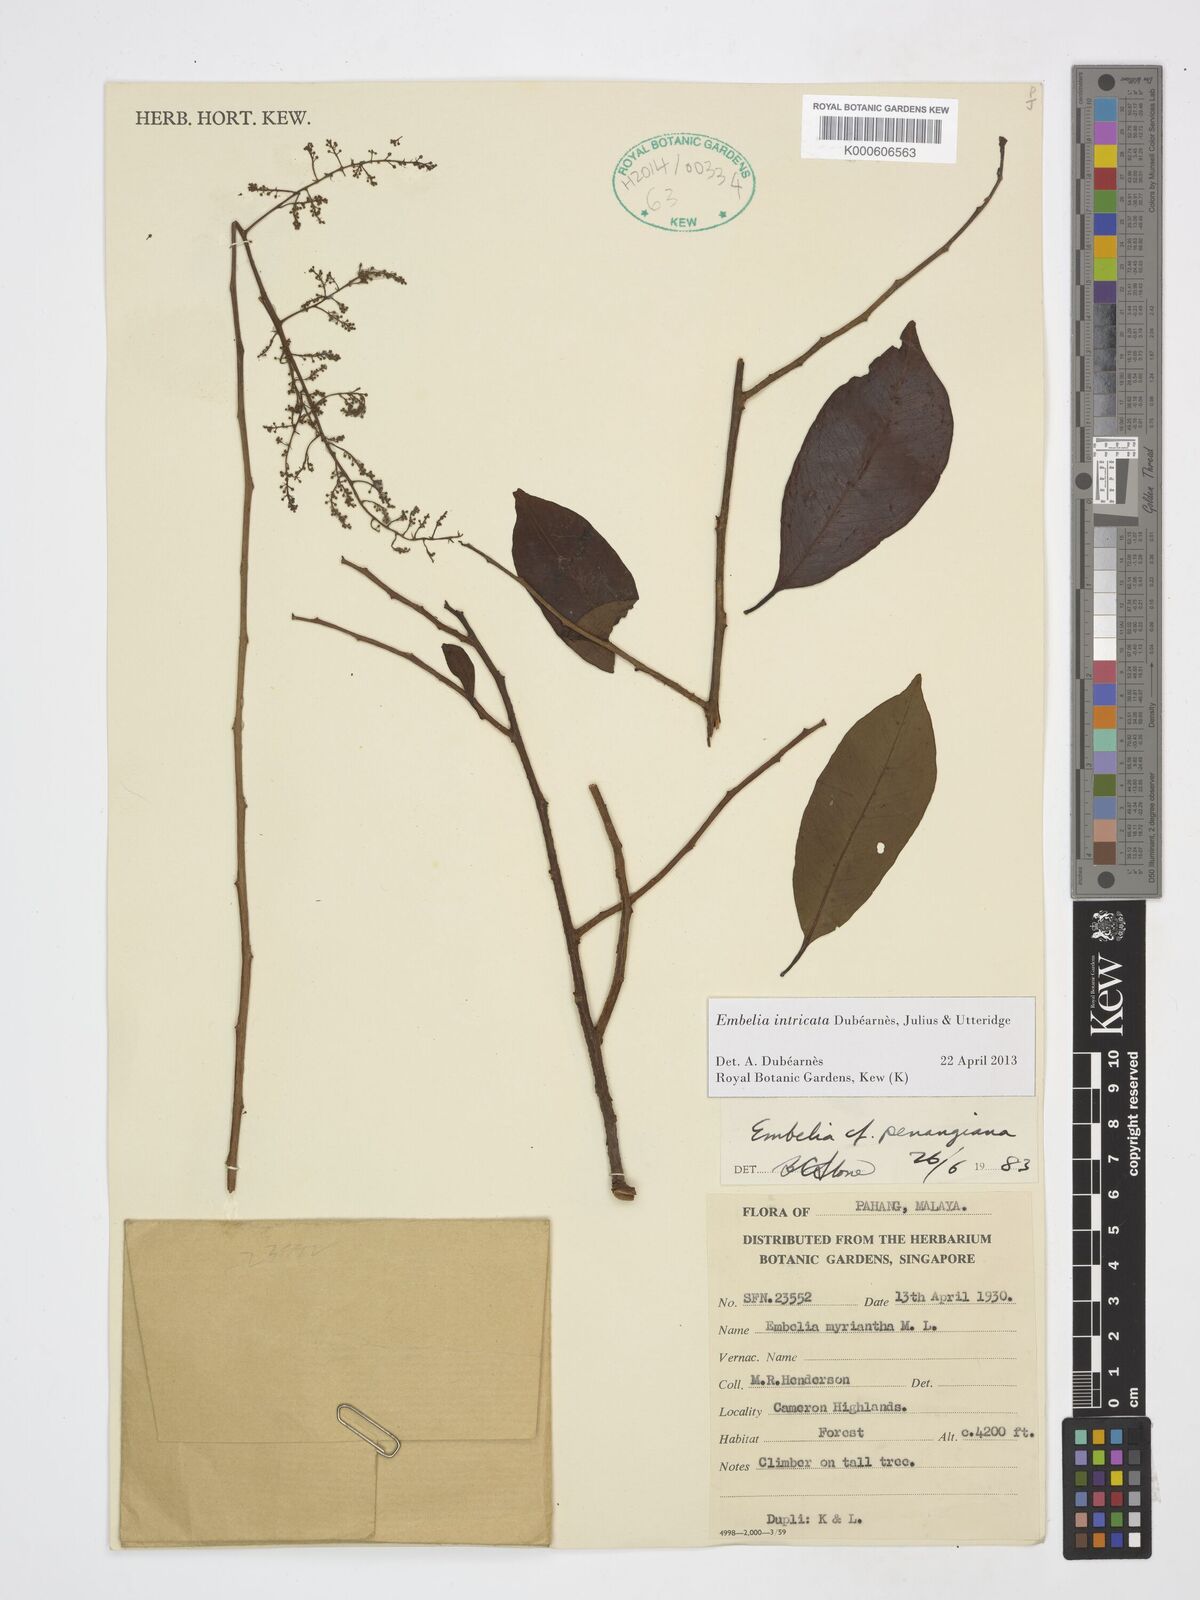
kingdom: Plantae
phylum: Tracheophyta
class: Magnoliopsida
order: Ericales
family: Primulaceae
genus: Embelia
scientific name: Embelia intricata
